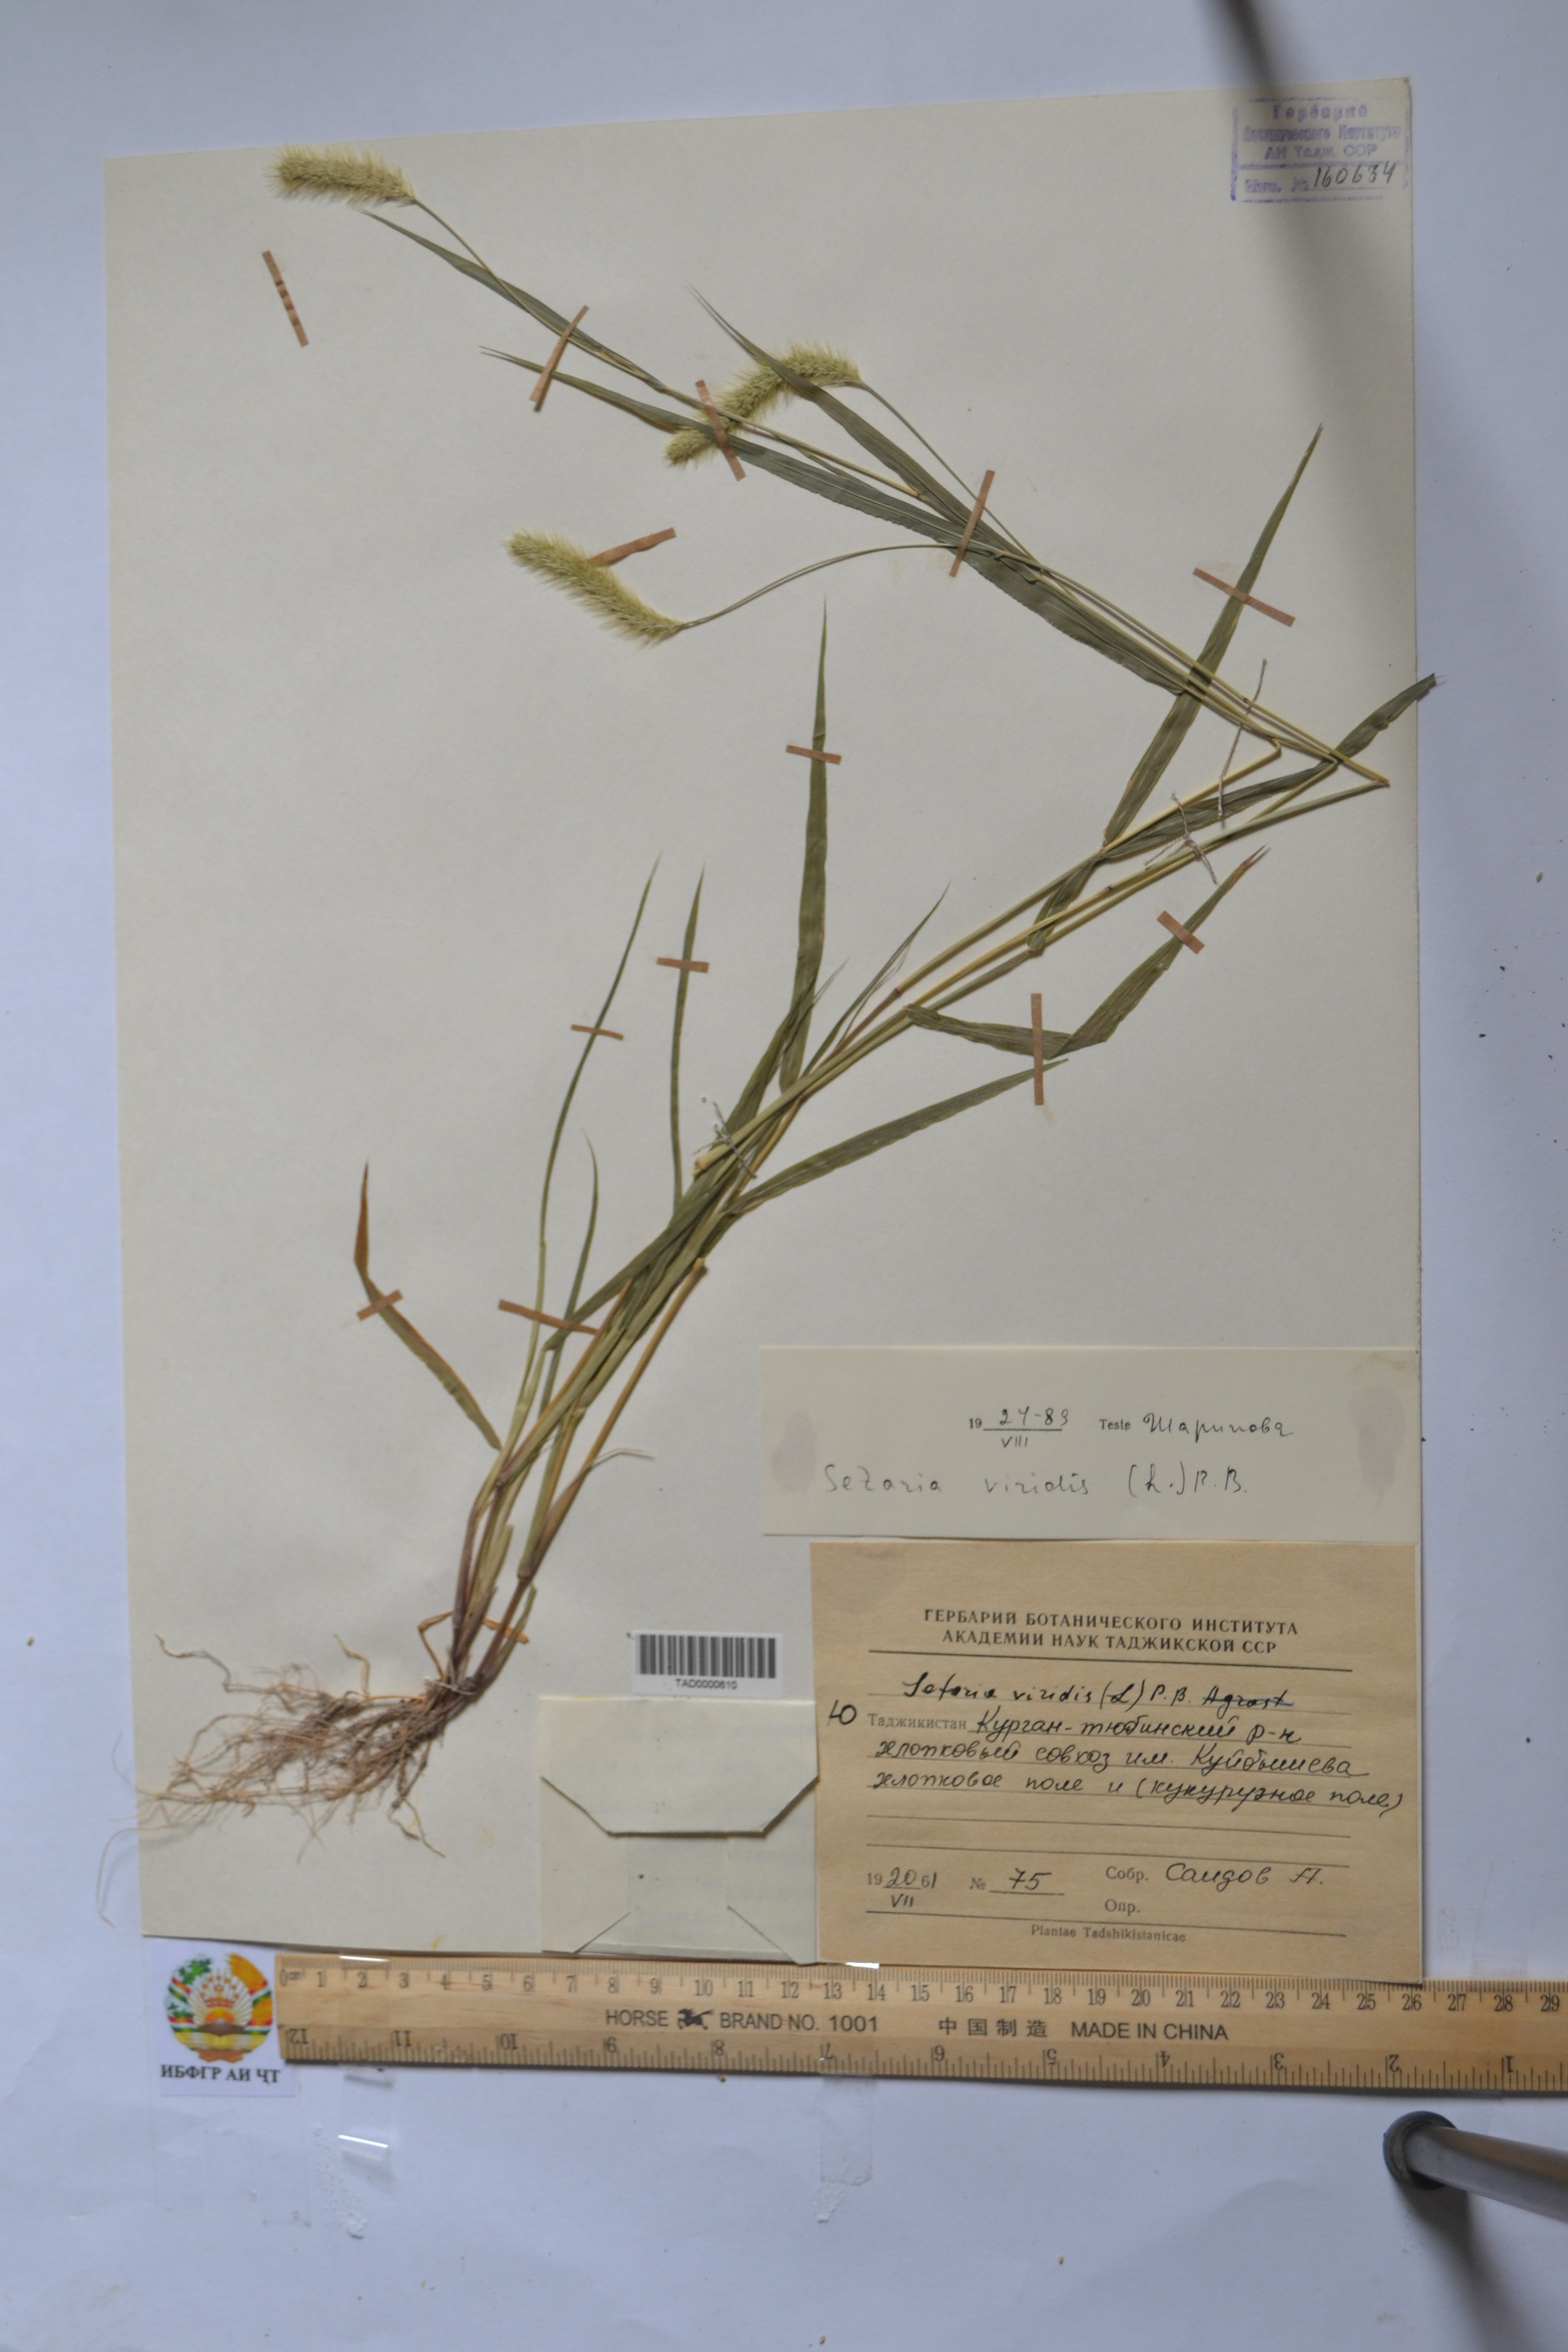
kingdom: Plantae
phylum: Tracheophyta
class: Liliopsida
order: Poales
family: Poaceae
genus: Setaria
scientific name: Setaria viridis
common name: Green bristlegrass
